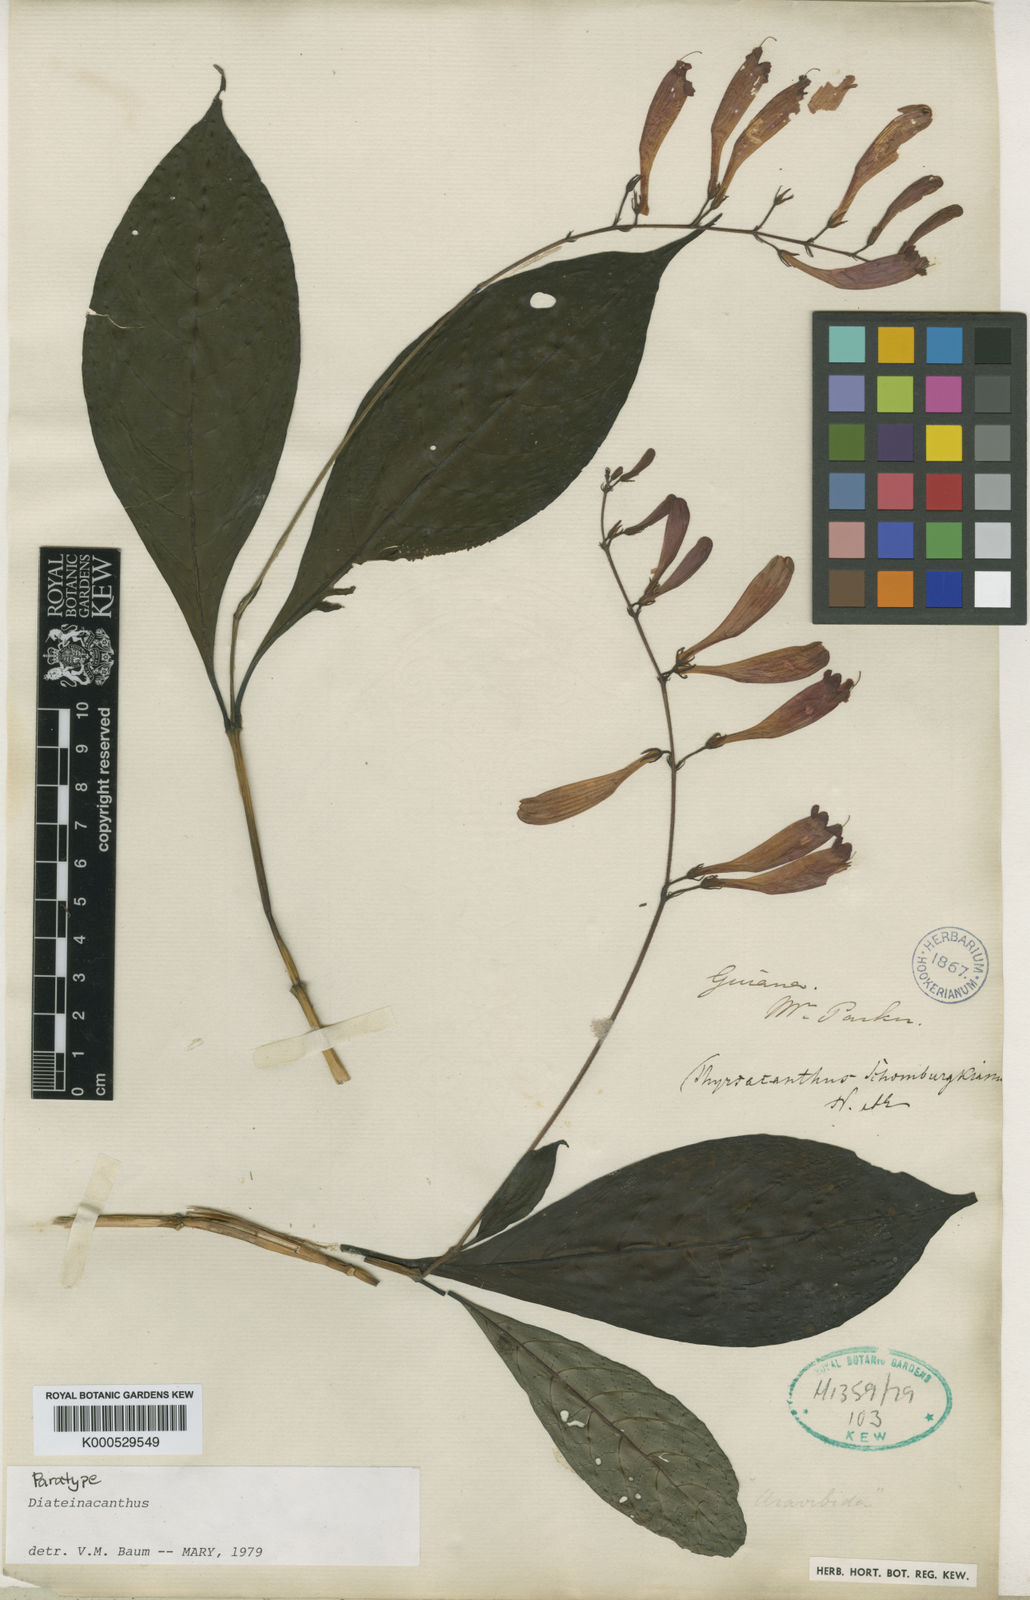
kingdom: Plantae
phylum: Tracheophyta
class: Magnoliopsida
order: Lamiales
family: Acanthaceae
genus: Odontonema
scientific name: Odontonema schomburgkianum
